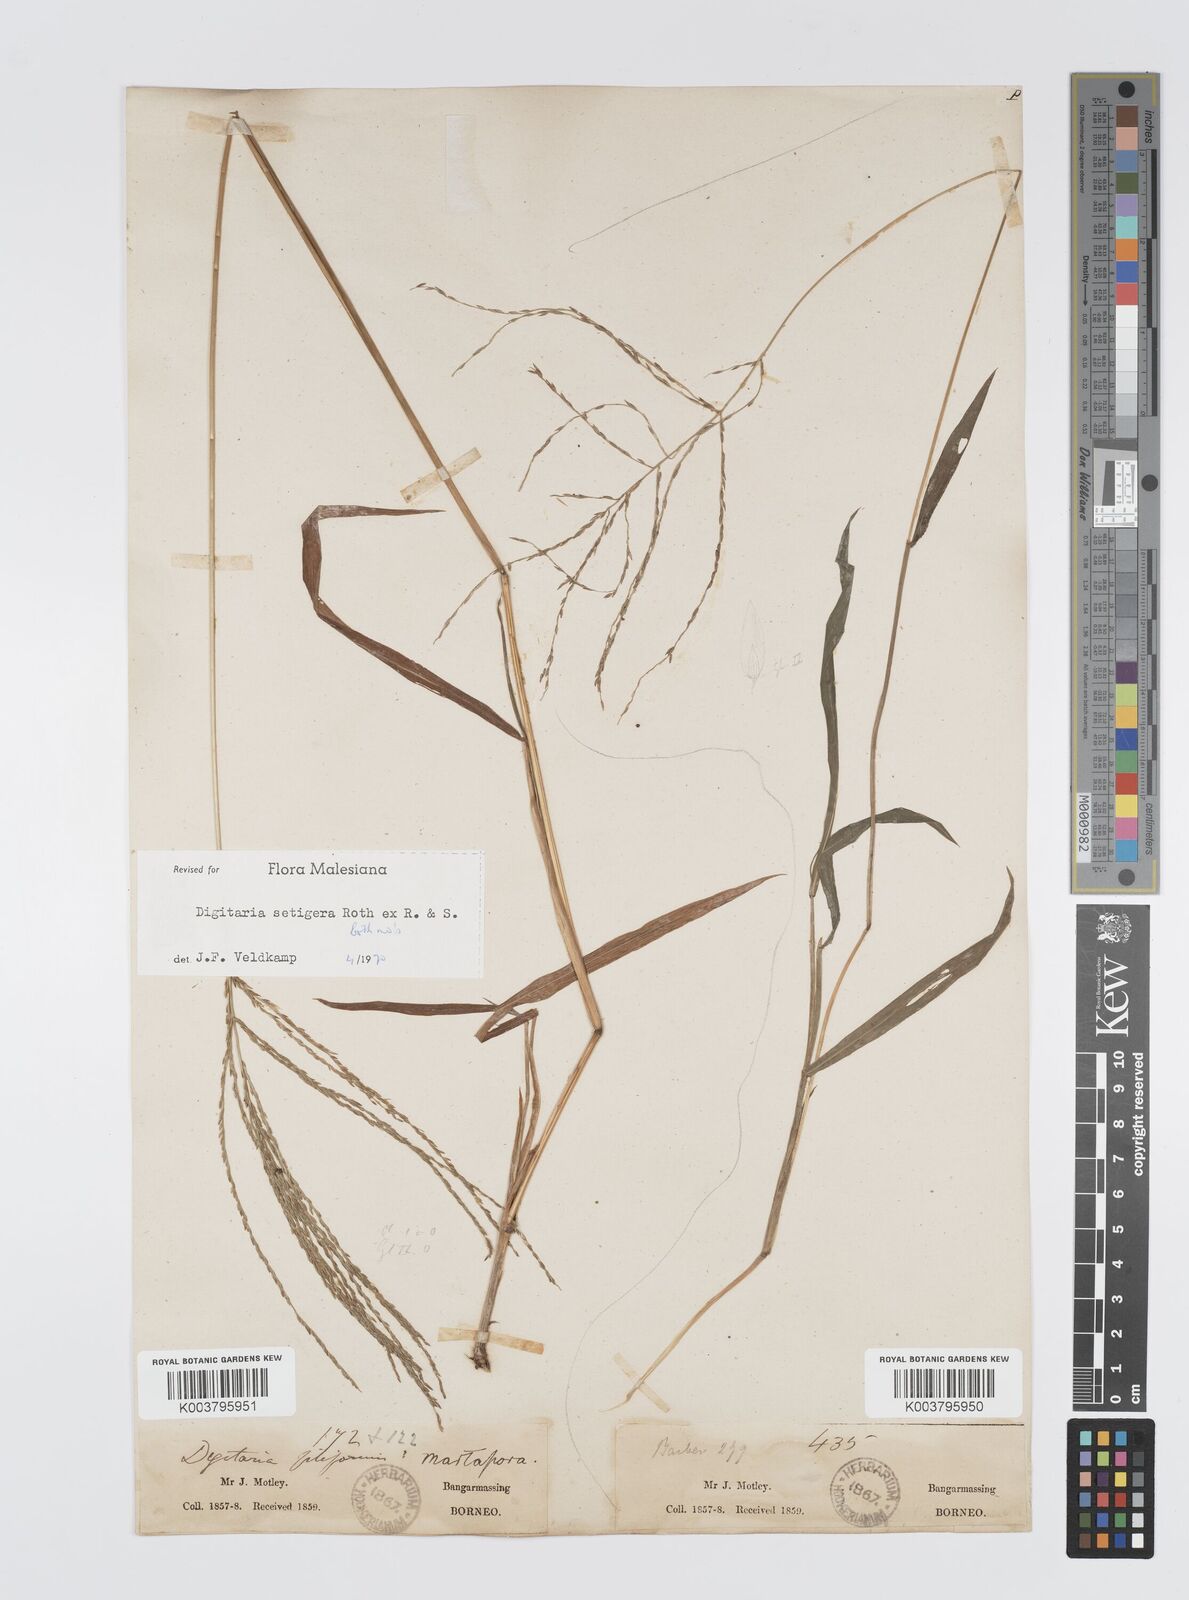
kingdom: Plantae
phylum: Tracheophyta
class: Liliopsida
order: Poales
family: Poaceae
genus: Digitaria
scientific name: Digitaria setigera
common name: East indian crabgrass
